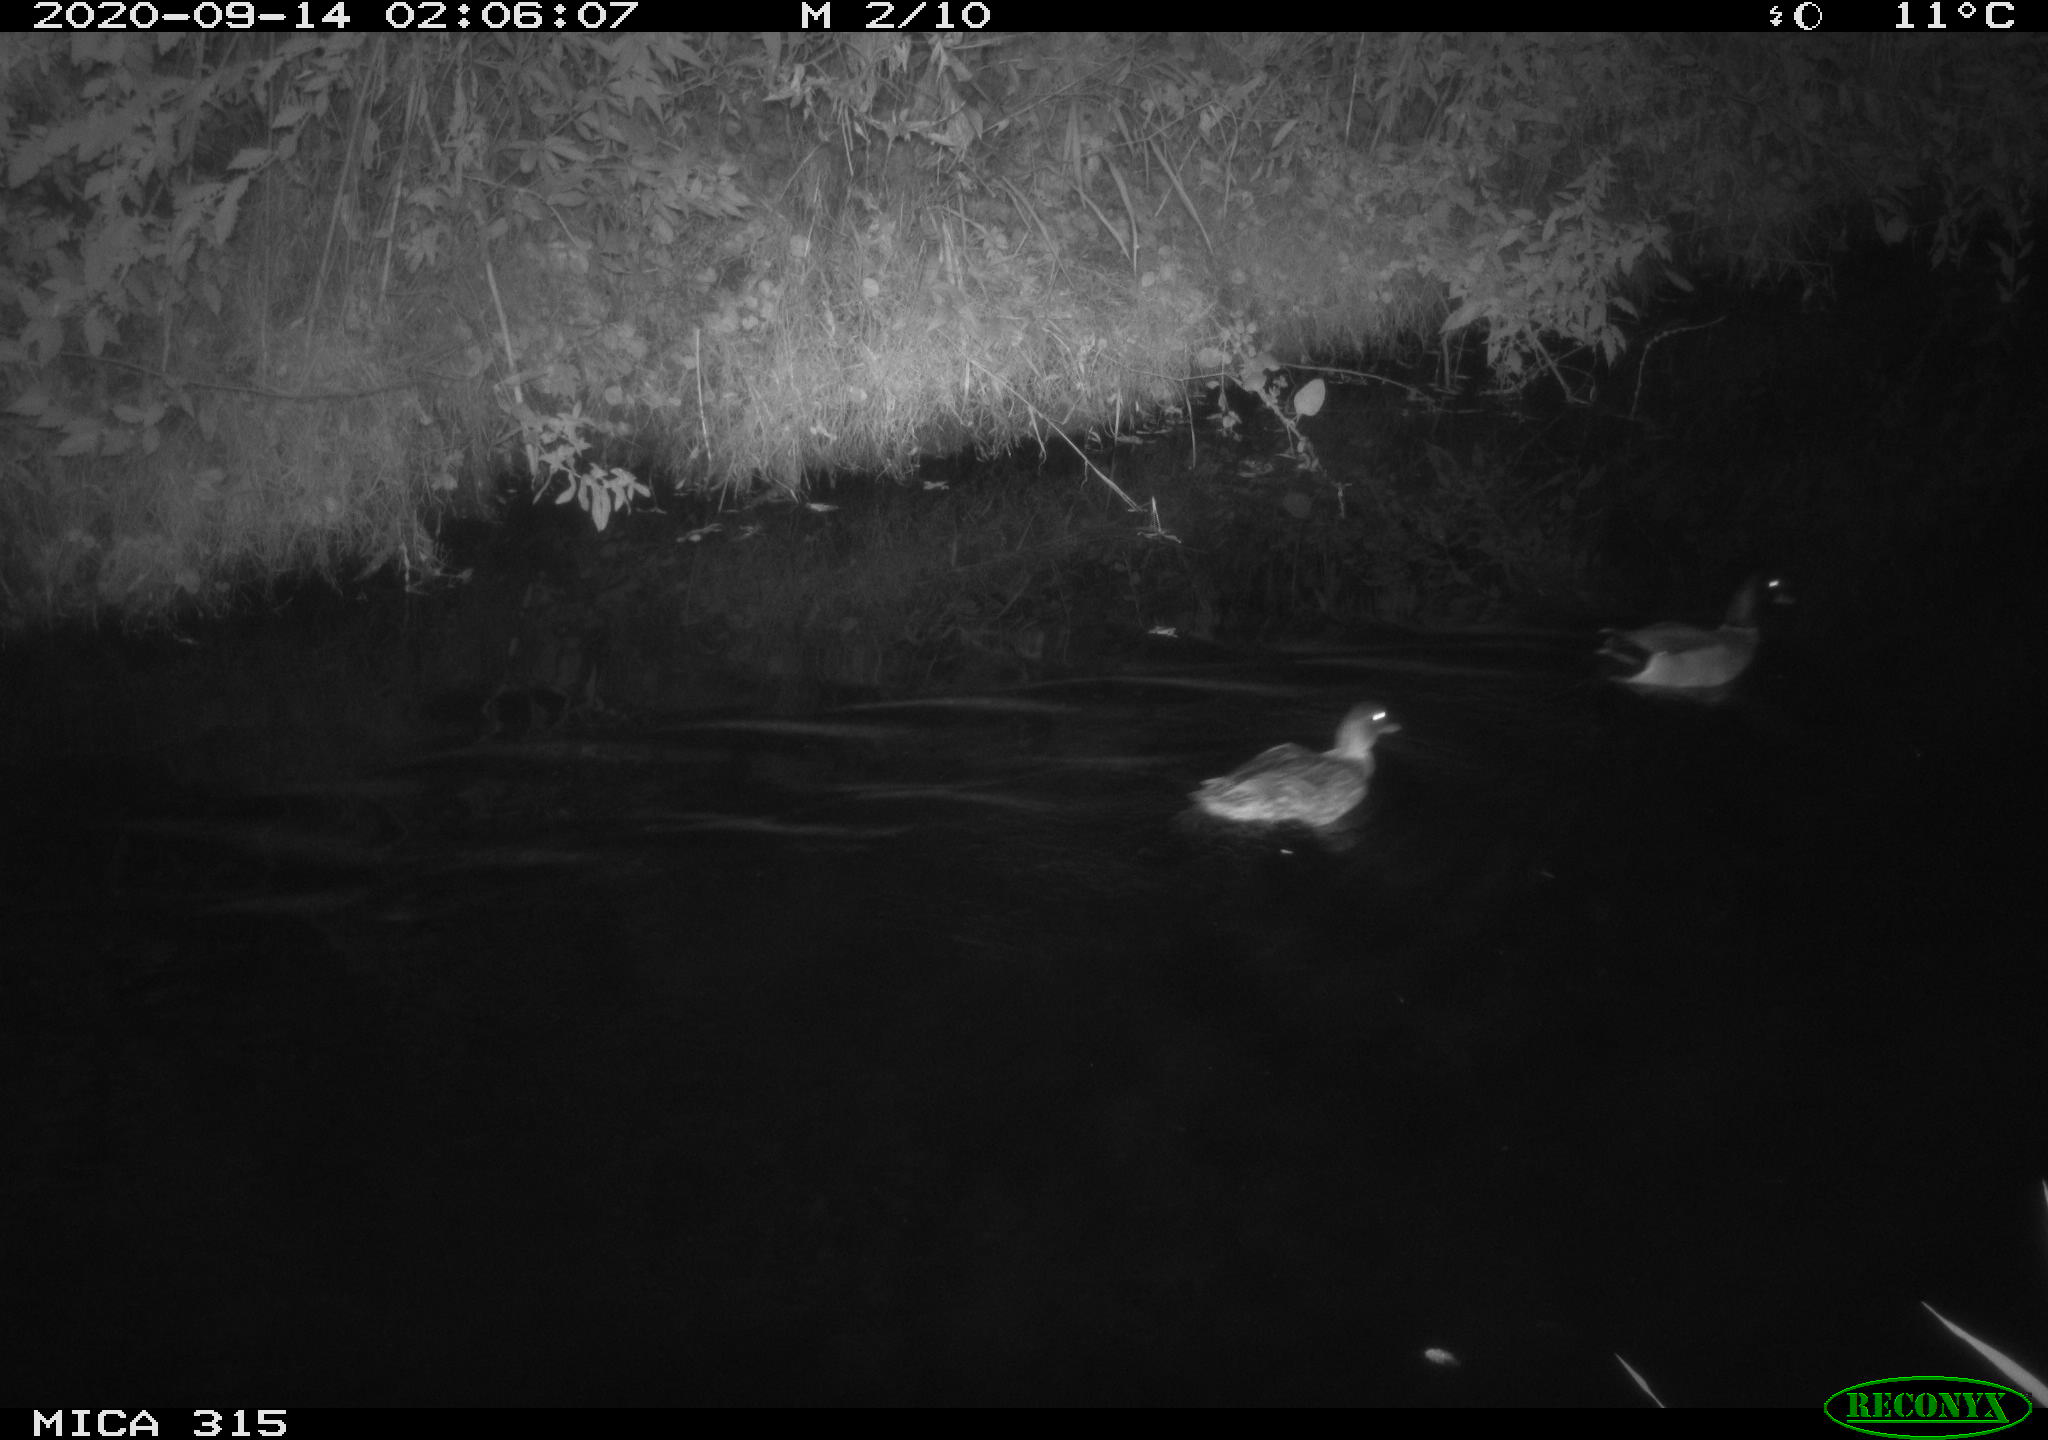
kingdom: Animalia
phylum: Chordata
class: Aves
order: Anseriformes
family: Anatidae
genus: Anas
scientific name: Anas platyrhynchos
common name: Mallard
